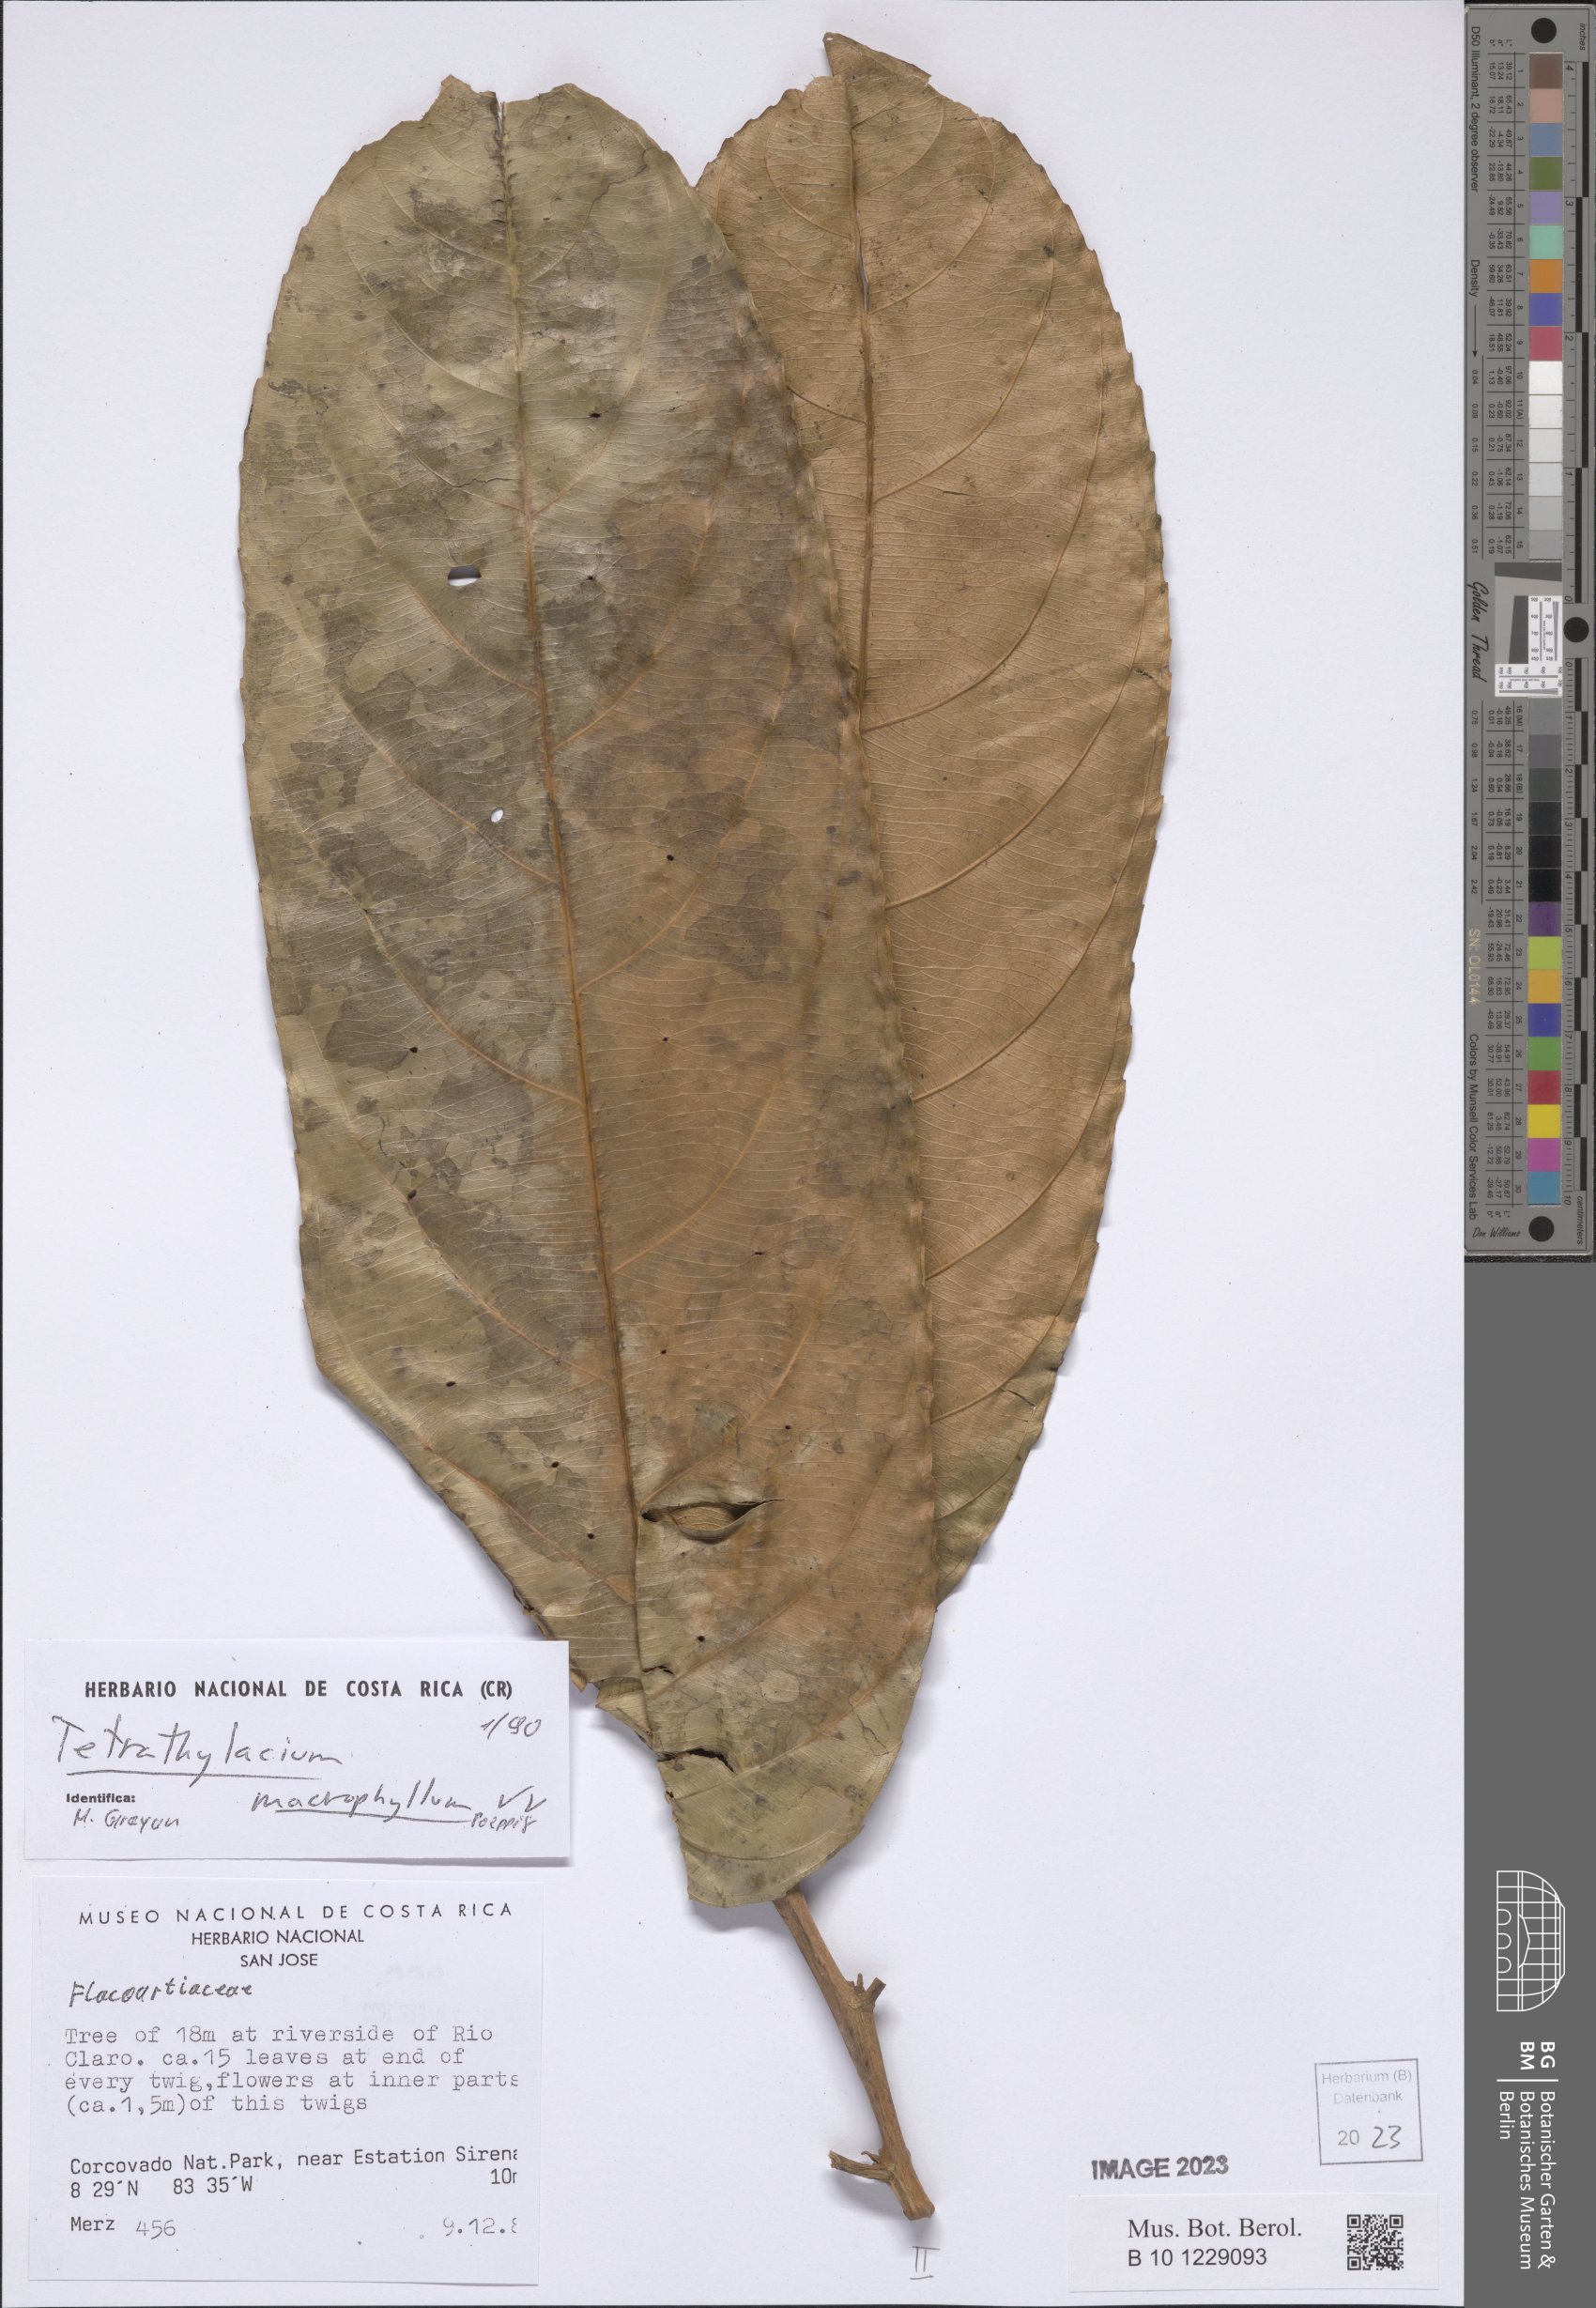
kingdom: Plantae
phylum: Tracheophyta
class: Magnoliopsida
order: Malpighiales
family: Salicaceae
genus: Tetrathylacium
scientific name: Tetrathylacium macrophyllum
